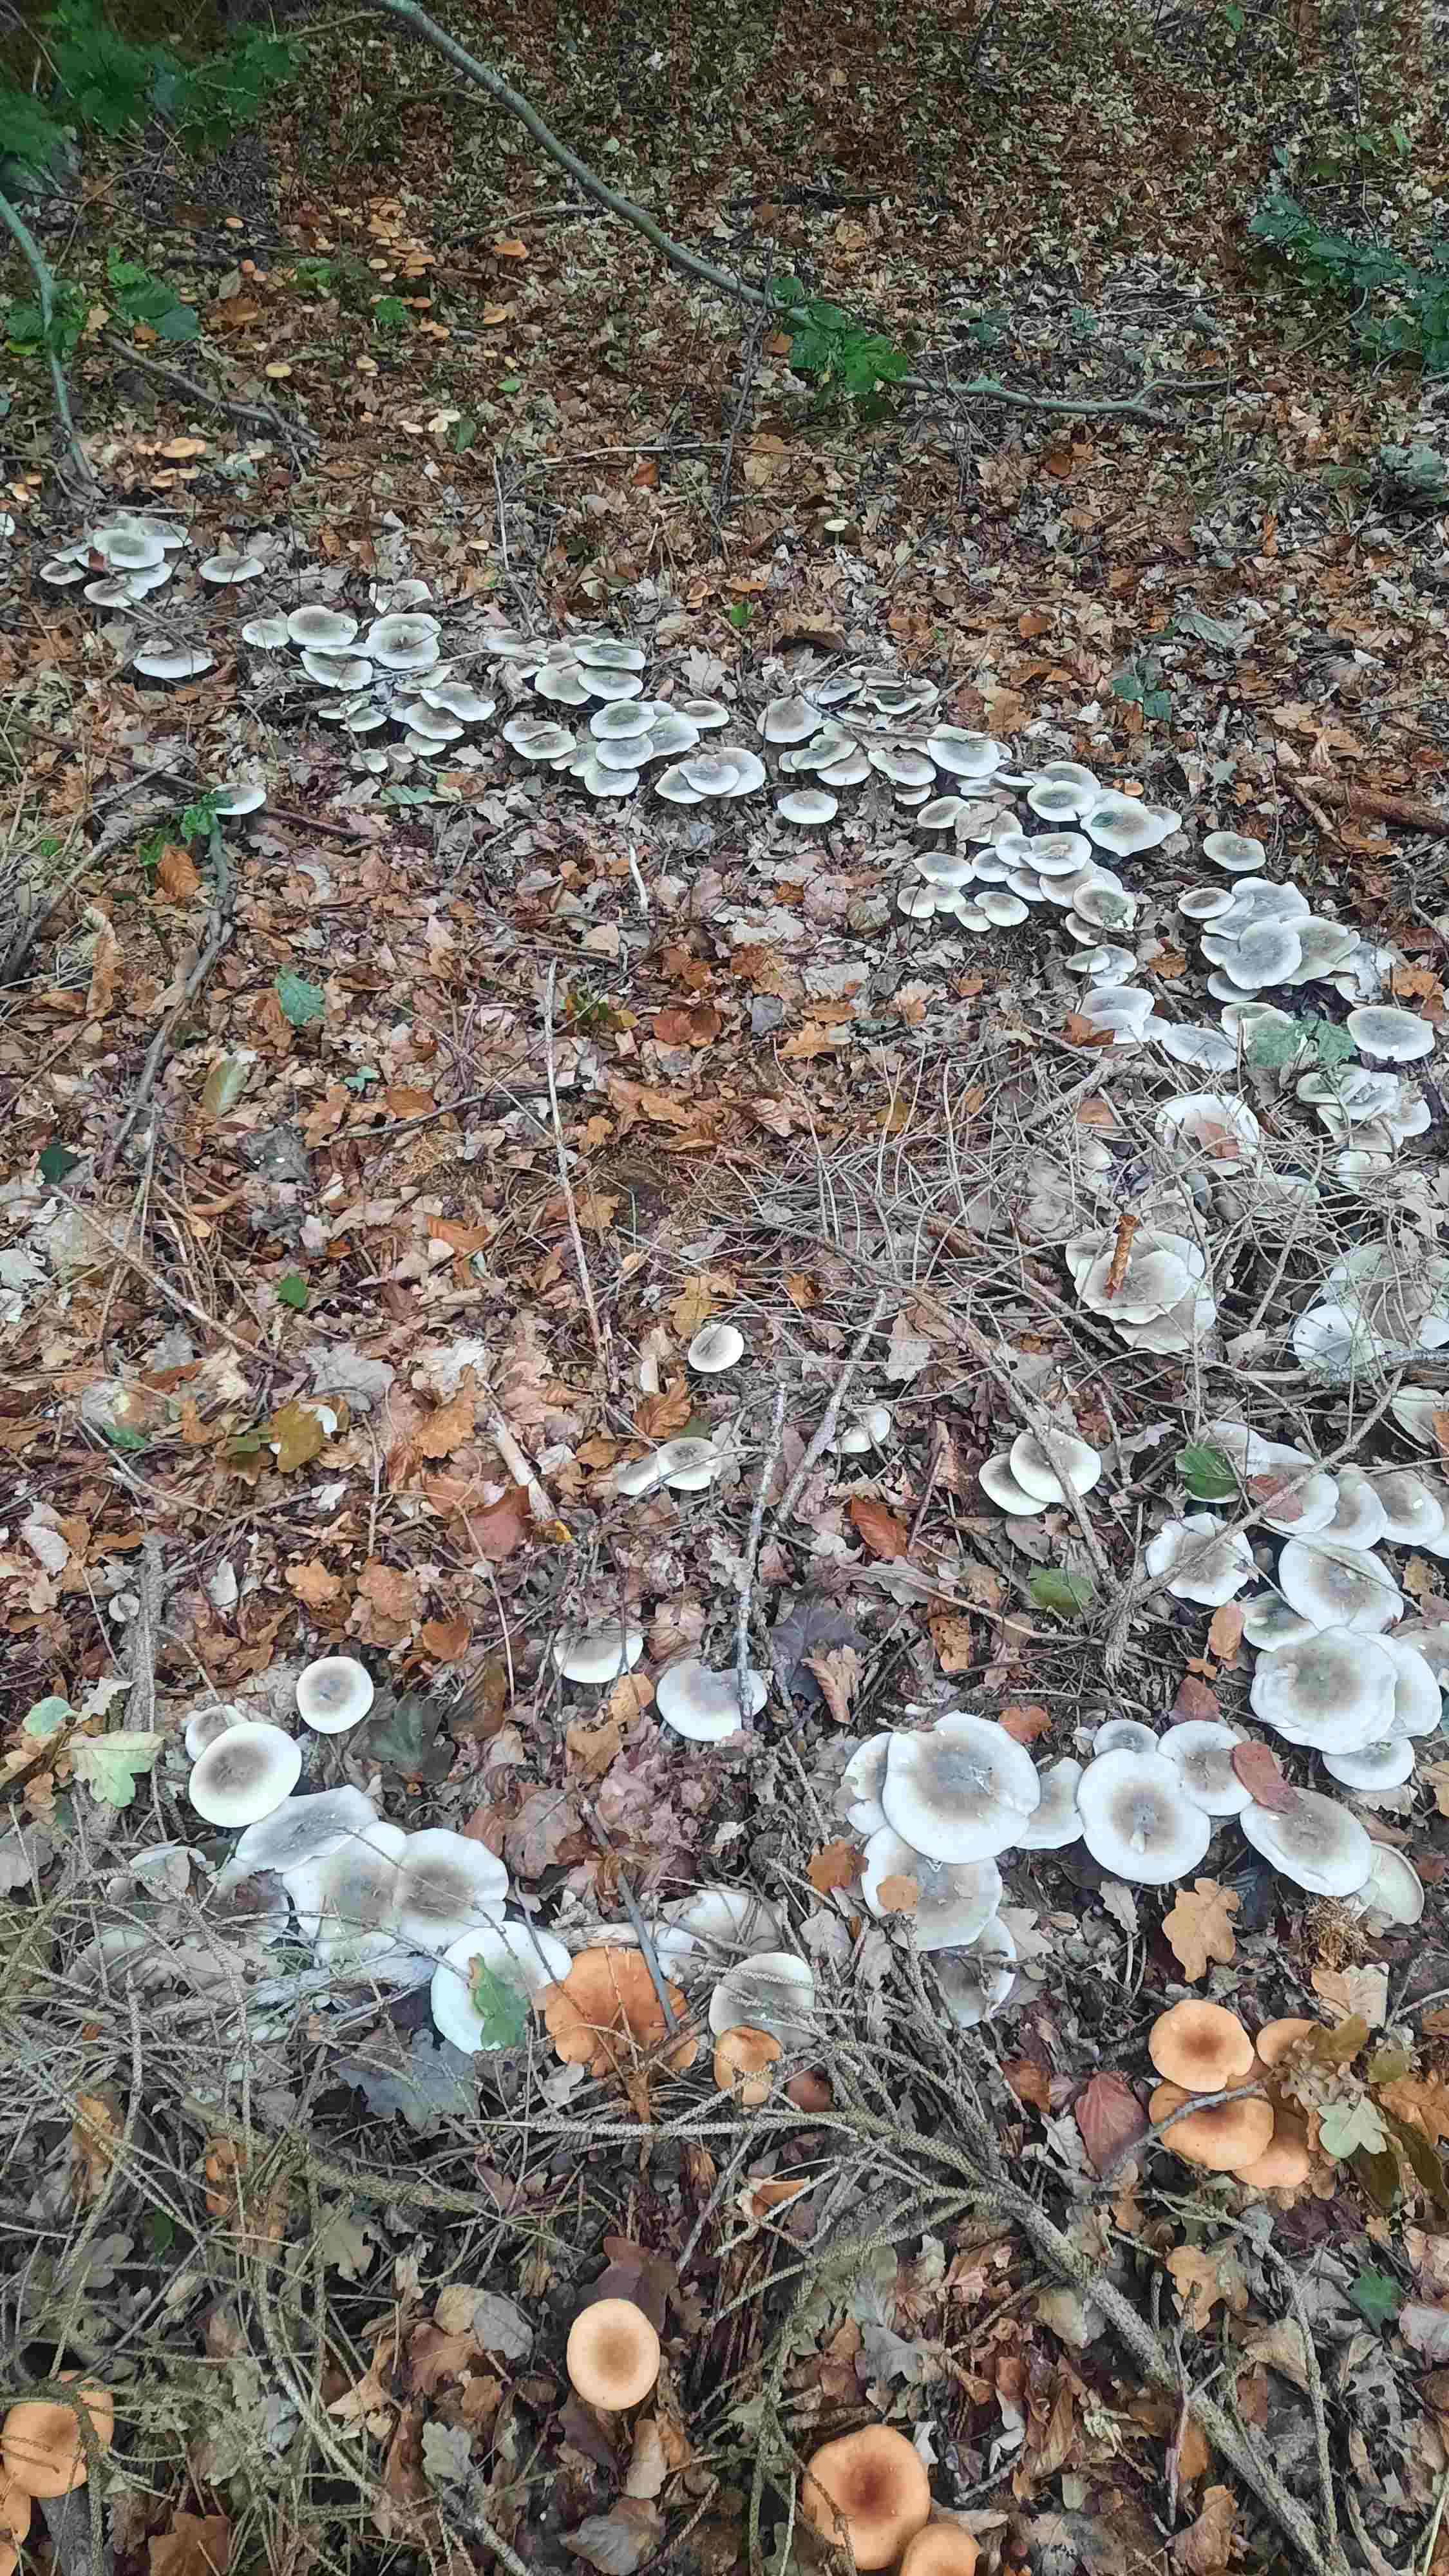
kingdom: Fungi
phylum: Basidiomycota
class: Agaricomycetes
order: Agaricales
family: Tricholomataceae
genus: Clitocybe
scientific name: Clitocybe nebularis
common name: tåge-tragthat
